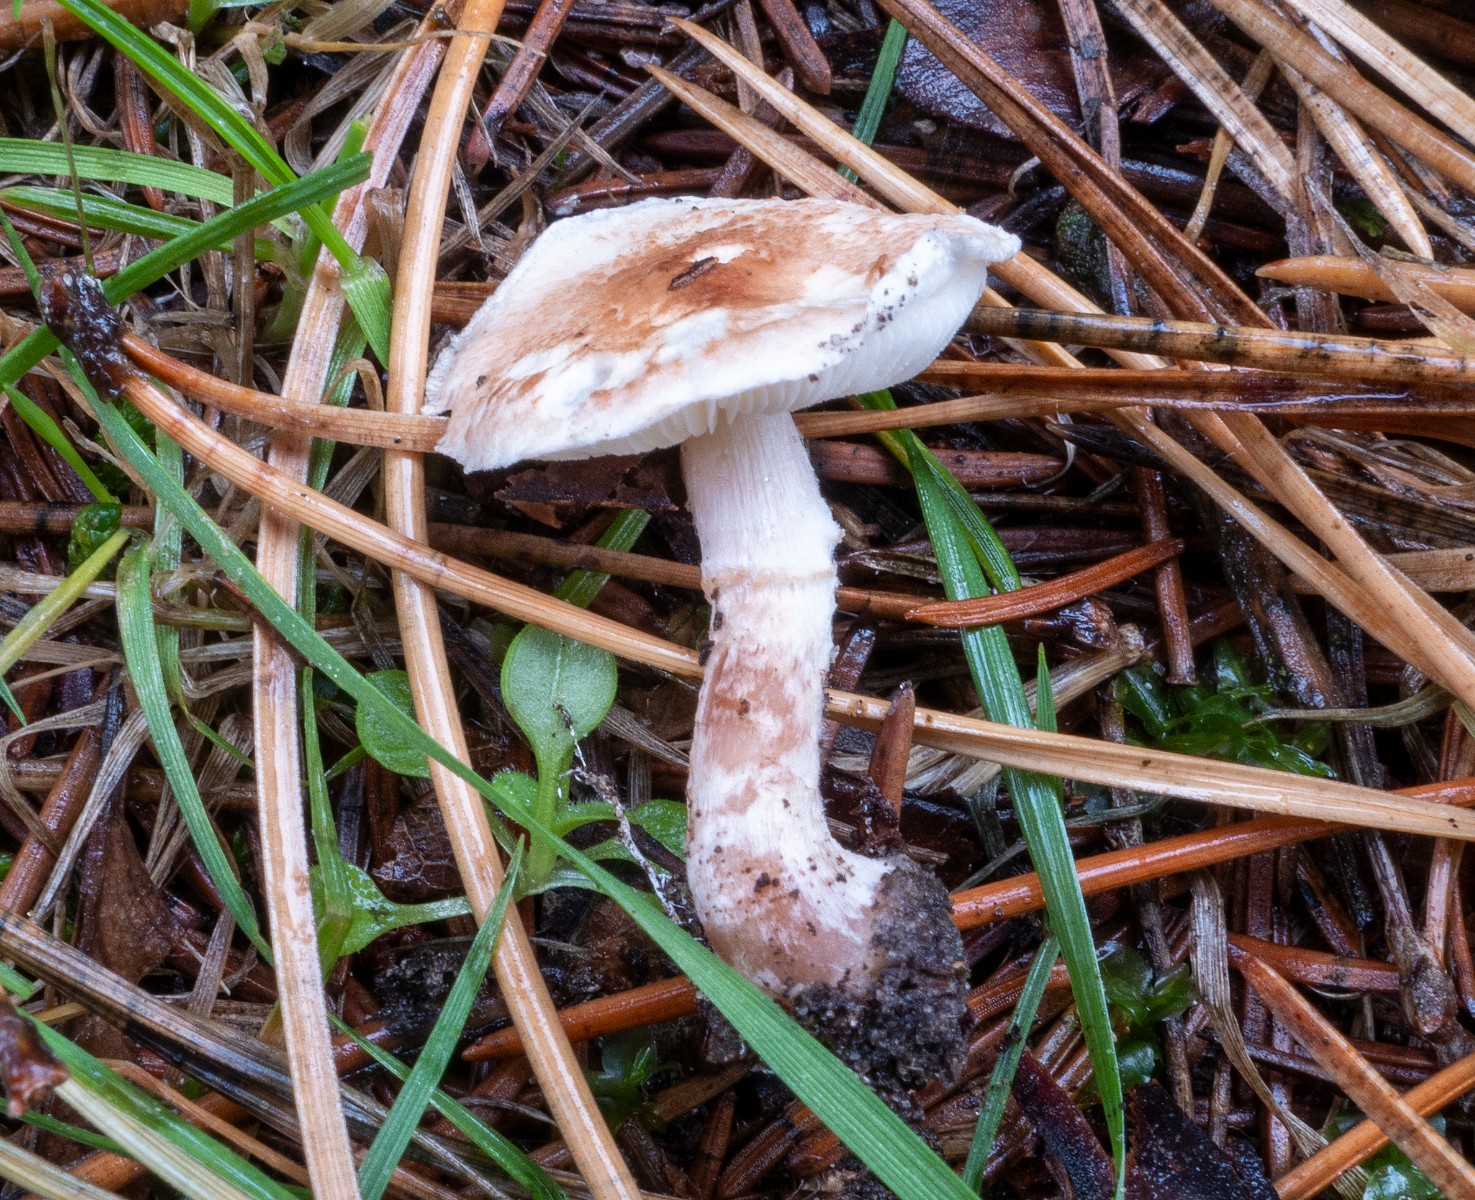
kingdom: Fungi
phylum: Basidiomycota
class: Agaricomycetes
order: Agaricales
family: Agaricaceae
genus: Lepiota
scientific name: Lepiota subincarnata
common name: kødfarvet parasolhat
